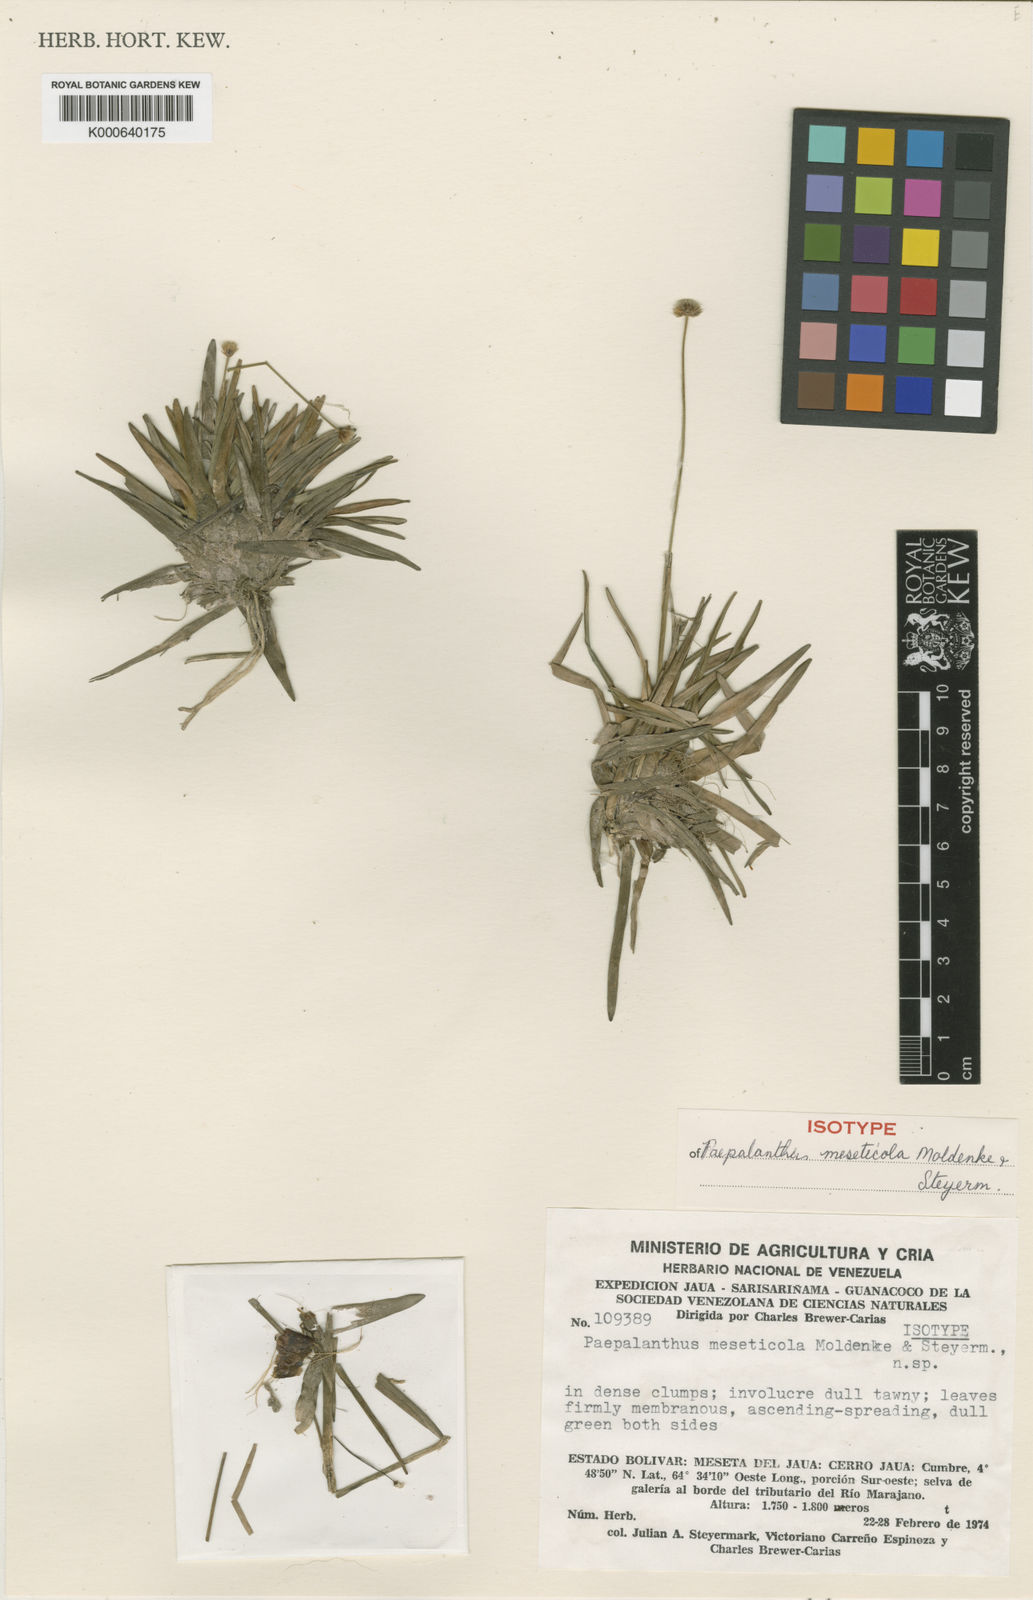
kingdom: Plantae
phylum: Tracheophyta
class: Liliopsida
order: Poales
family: Eriocaulaceae
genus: Leiothrix
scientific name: Leiothrix flavescens
